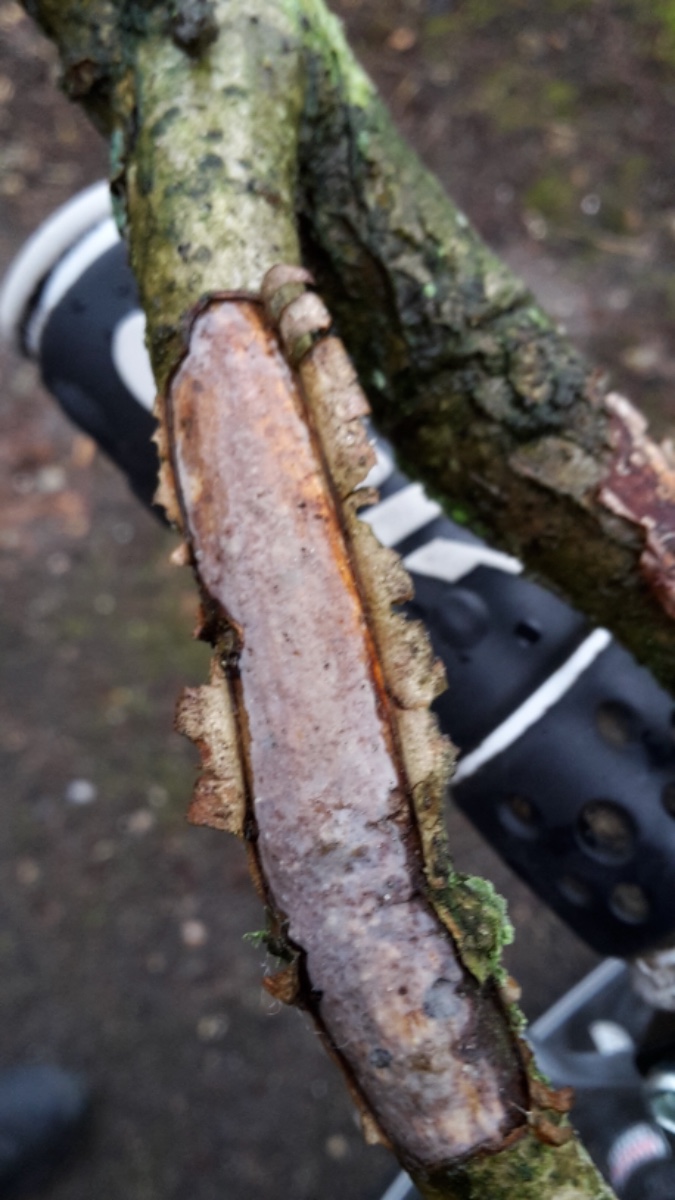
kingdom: Fungi
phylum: Basidiomycota
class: Agaricomycetes
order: Corticiales
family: Vuilleminiaceae
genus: Vuilleminia
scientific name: Vuilleminia comedens
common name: almindelig barksprænger
